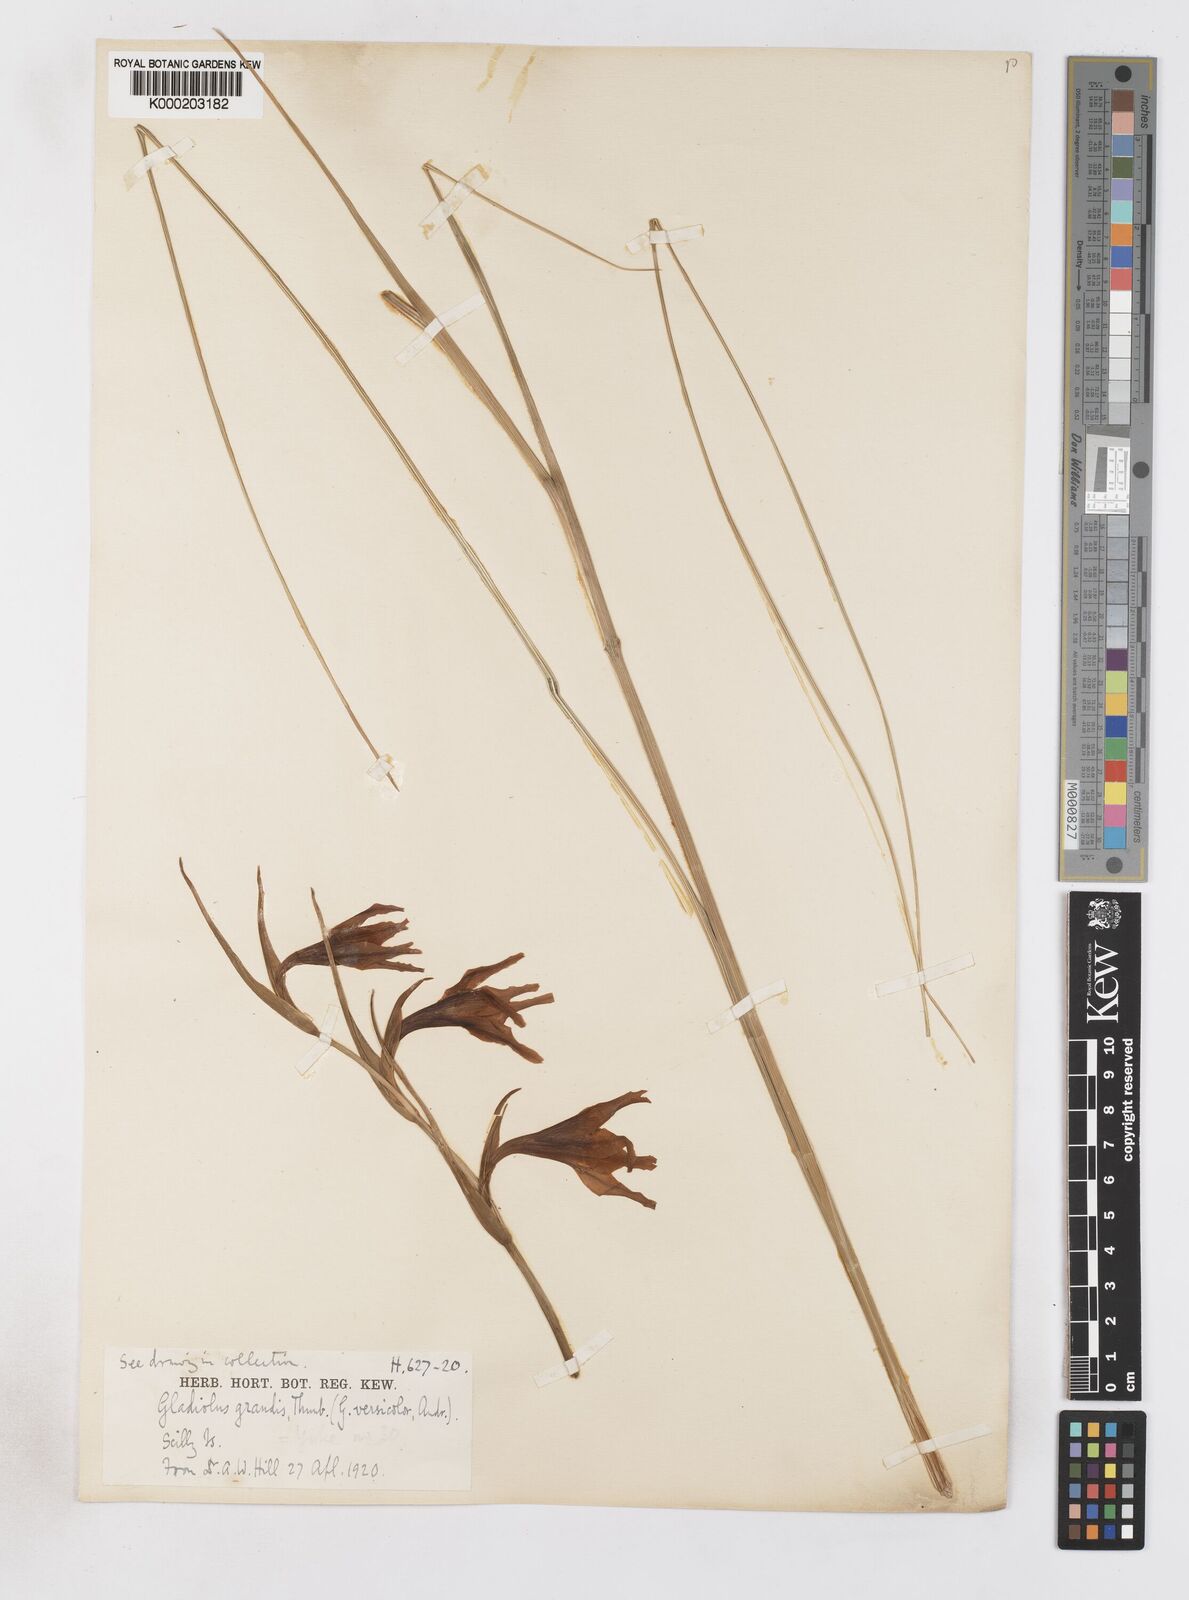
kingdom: Plantae
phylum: Tracheophyta
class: Liliopsida
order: Asparagales
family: Iridaceae
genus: Gladiolus
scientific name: Gladiolus liliaceus
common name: Large brown afrikaner
